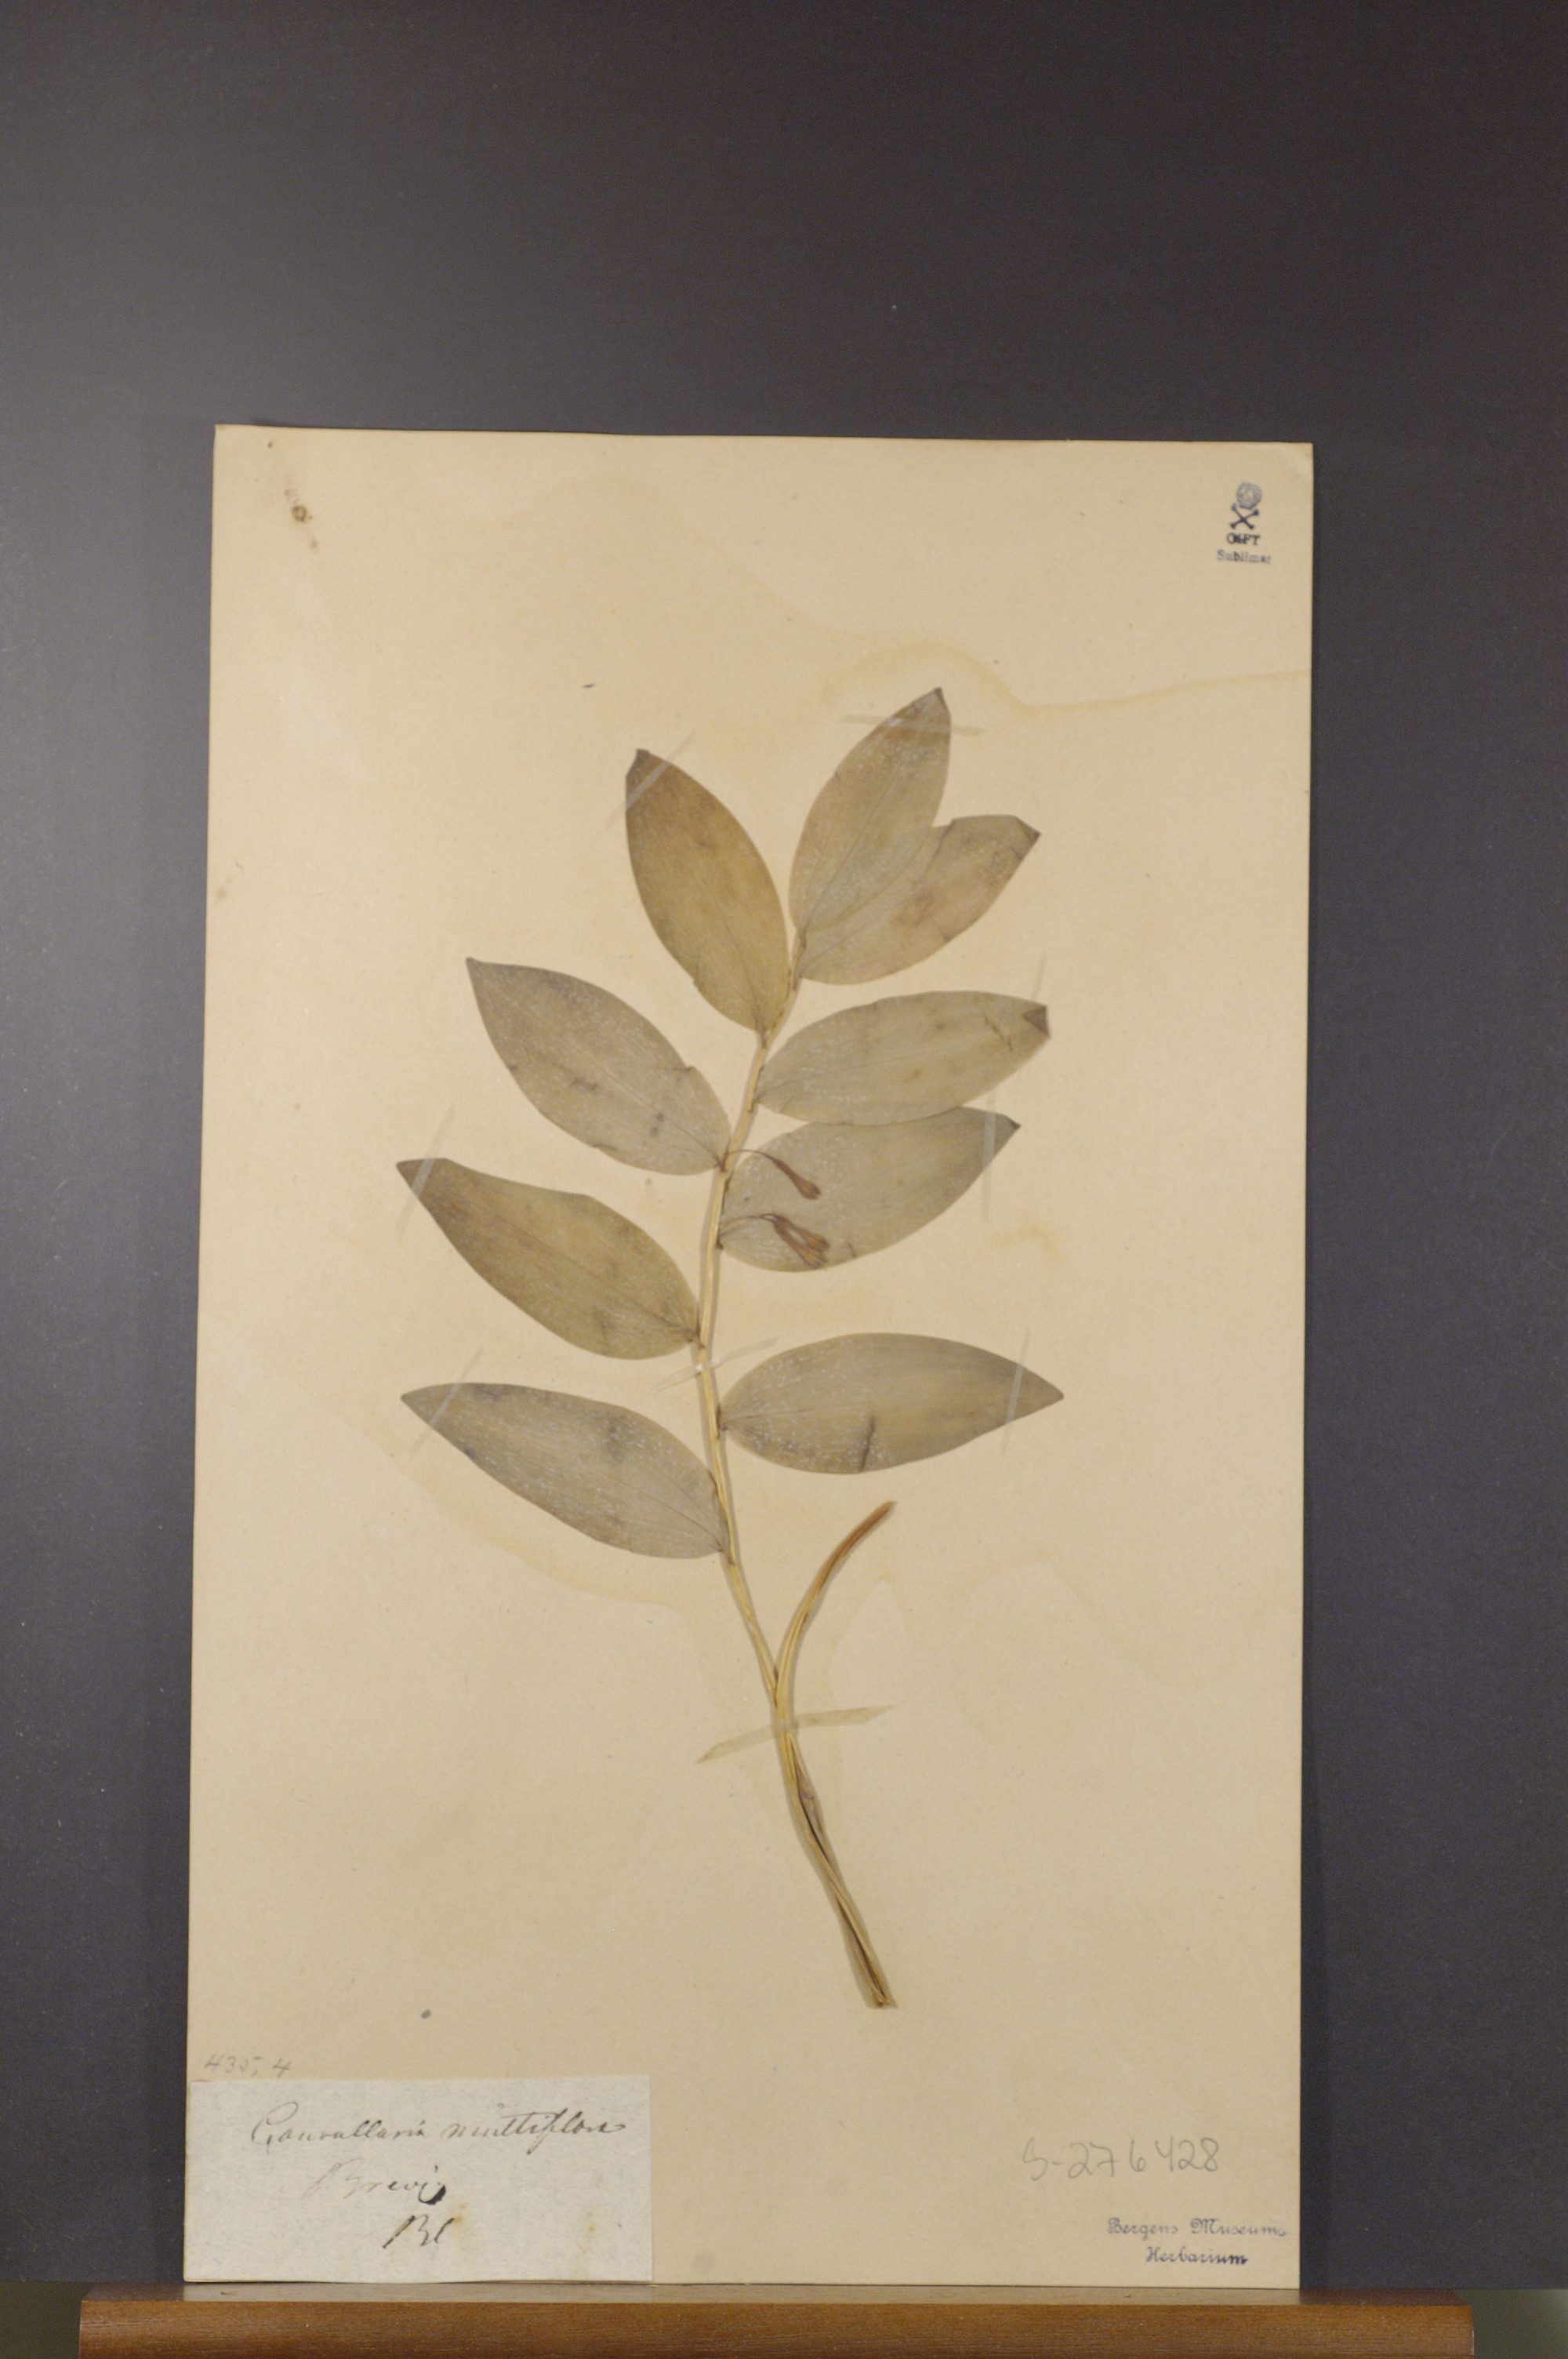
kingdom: Plantae
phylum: Tracheophyta
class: Liliopsida
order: Asparagales
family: Asparagaceae
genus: Polygonatum
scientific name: Polygonatum multiflorum
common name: Solomon's-seal
